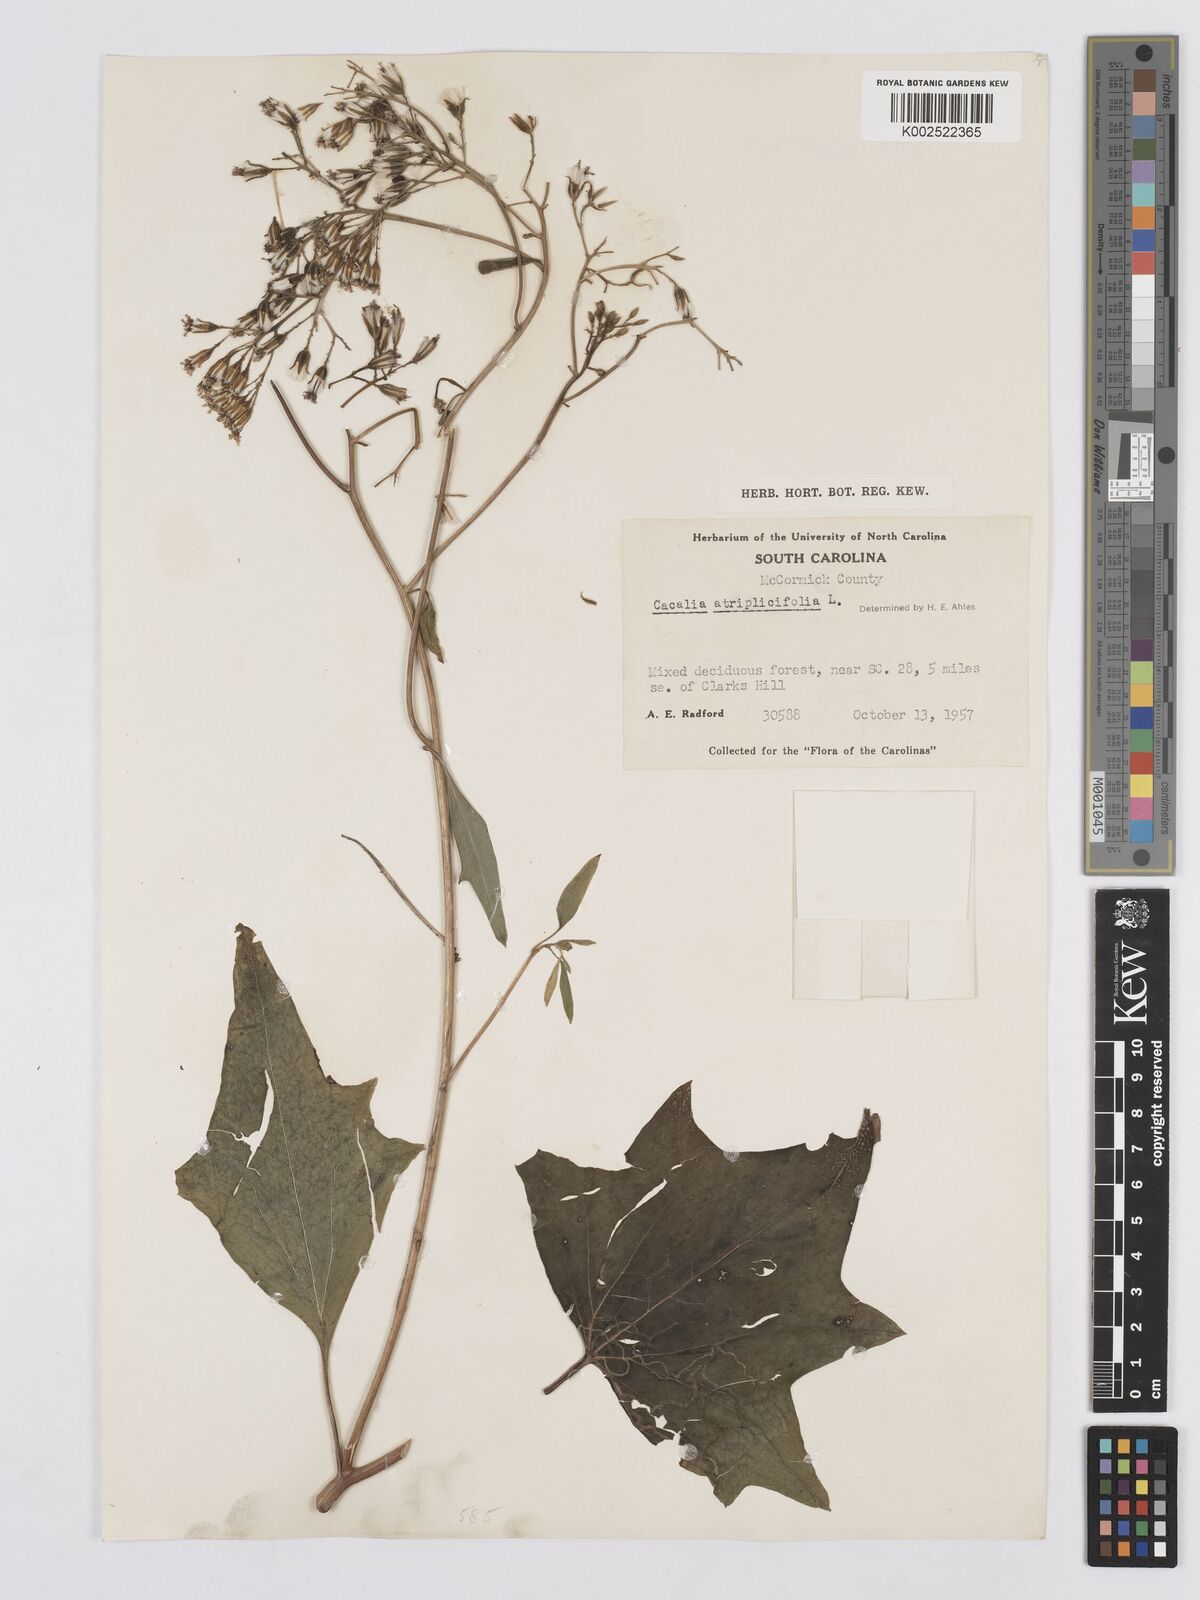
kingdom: Plantae
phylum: Tracheophyta
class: Magnoliopsida
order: Asterales
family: Asteraceae
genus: Arnoglossum
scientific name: Arnoglossum atriplicifolium
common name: Pale indian-plantain
